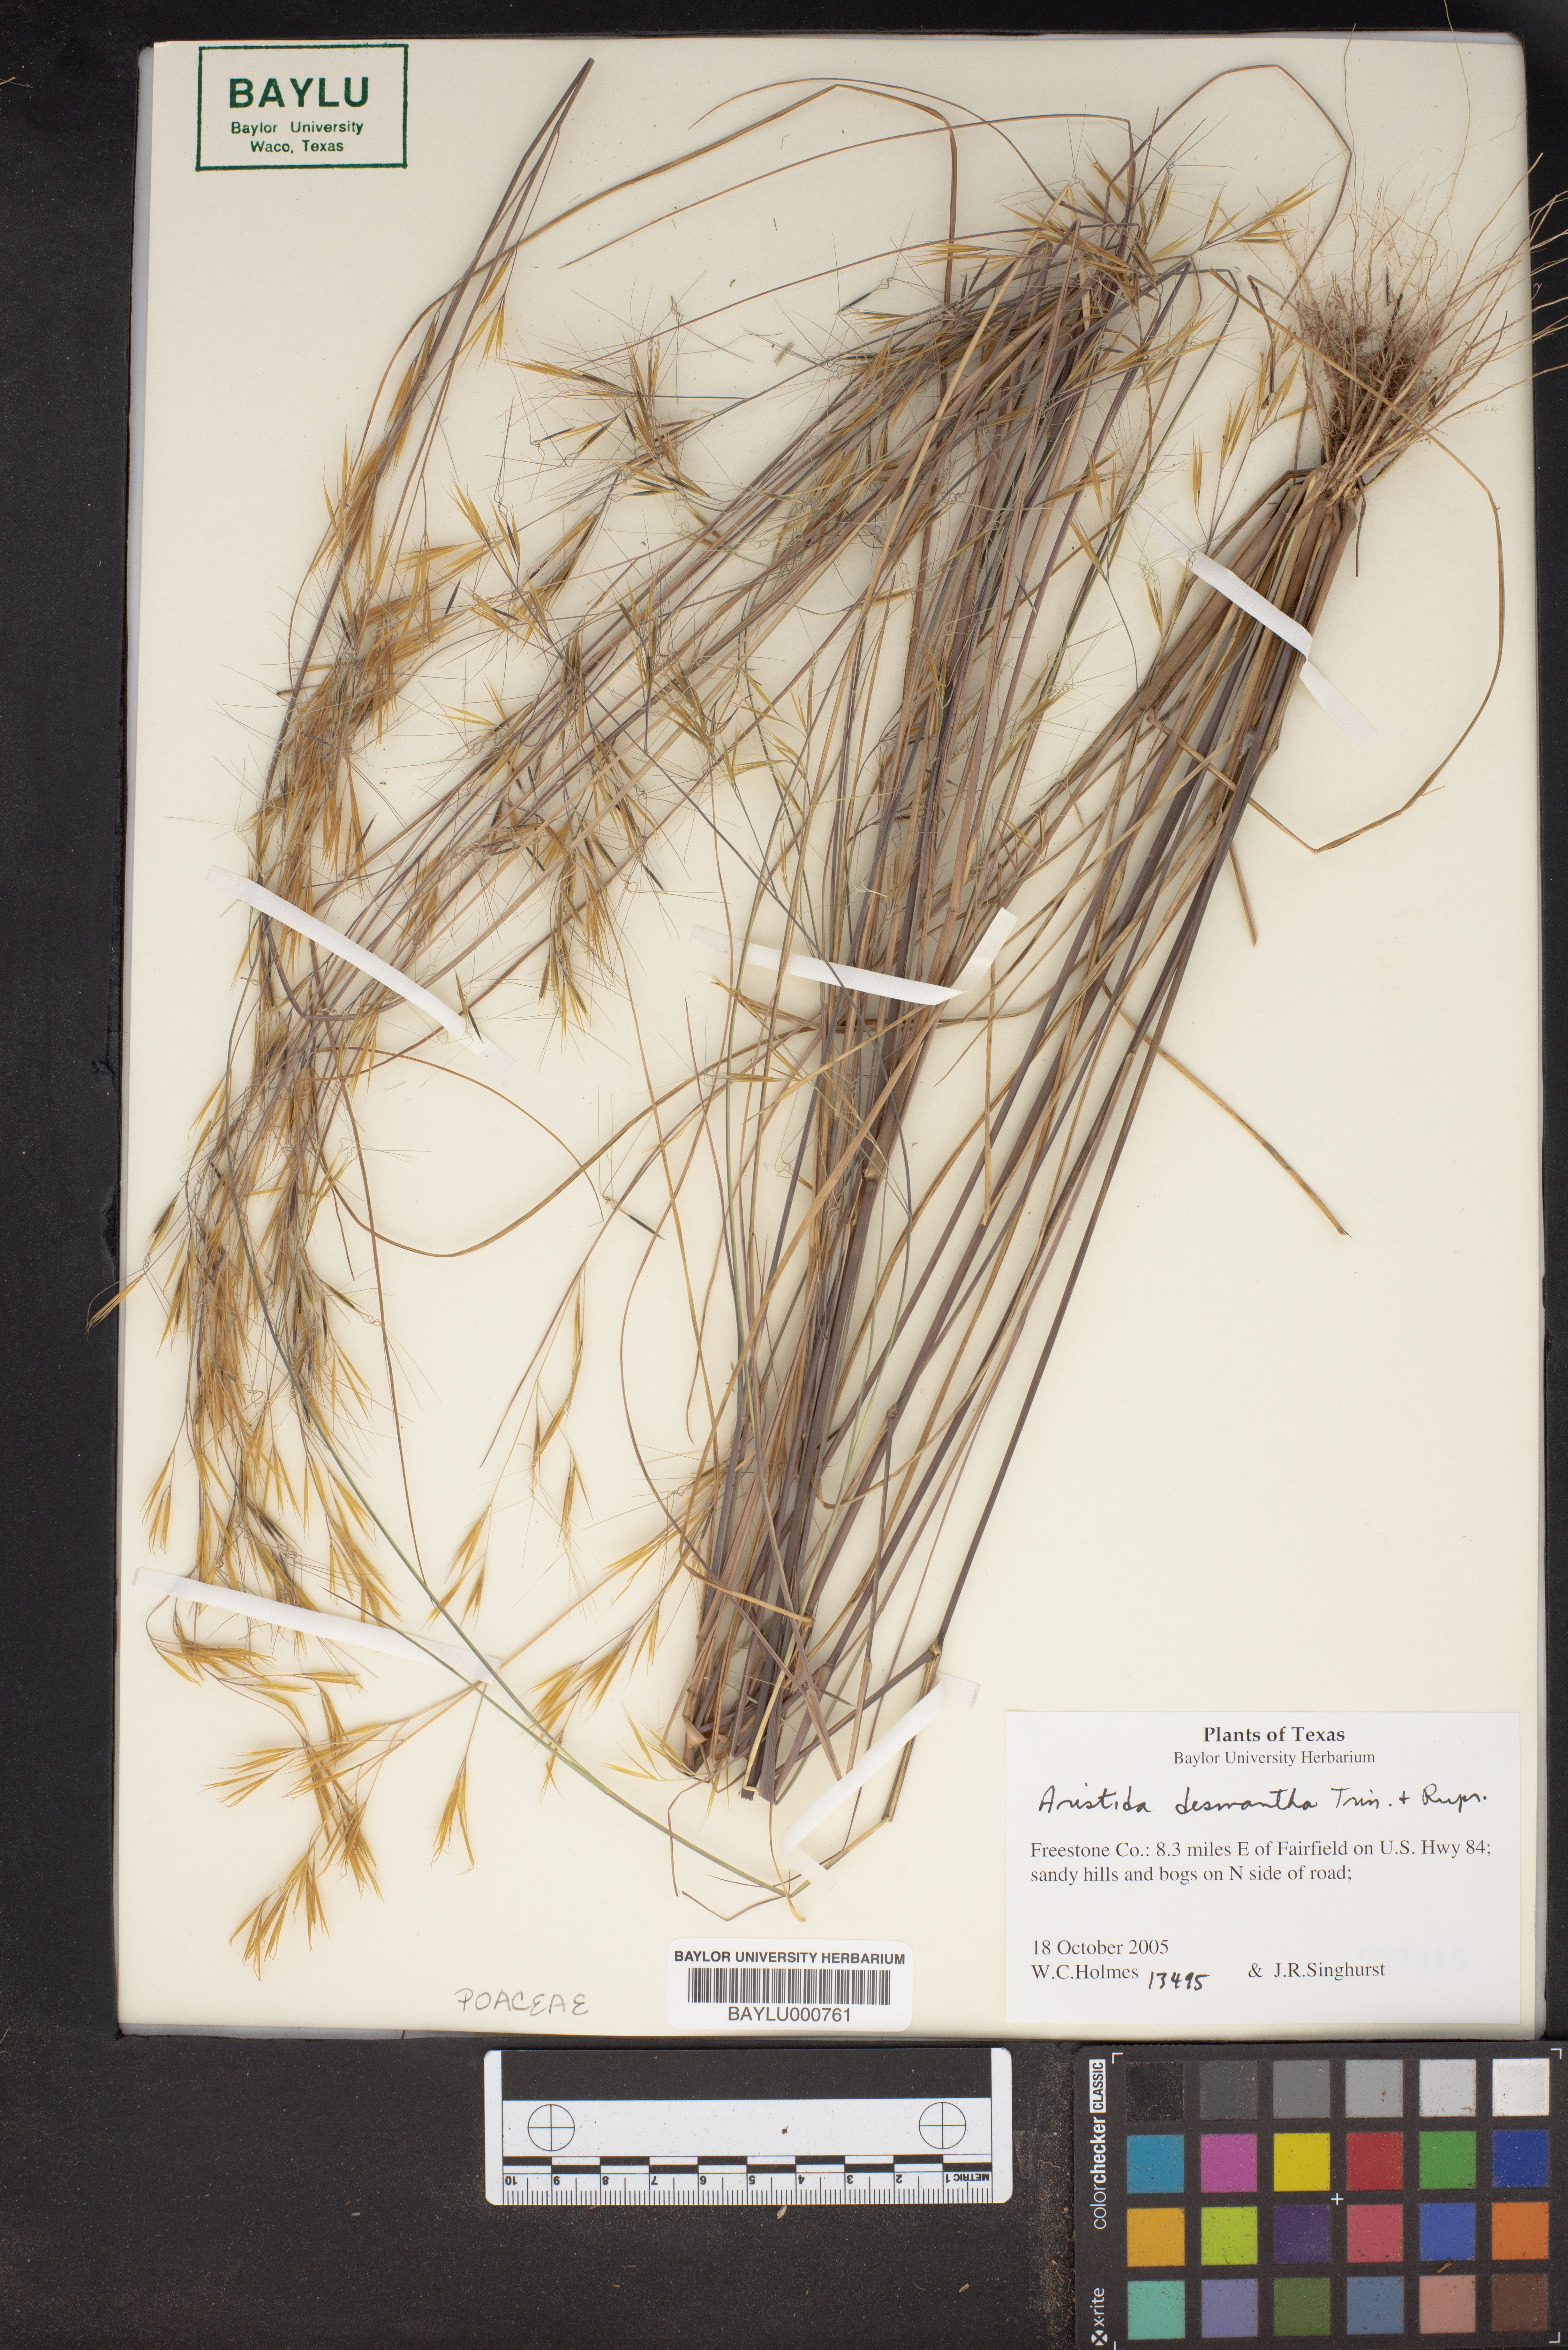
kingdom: Plantae
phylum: Tracheophyta
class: Liliopsida
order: Poales
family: Poaceae
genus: Aristida
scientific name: Aristida desmantha
